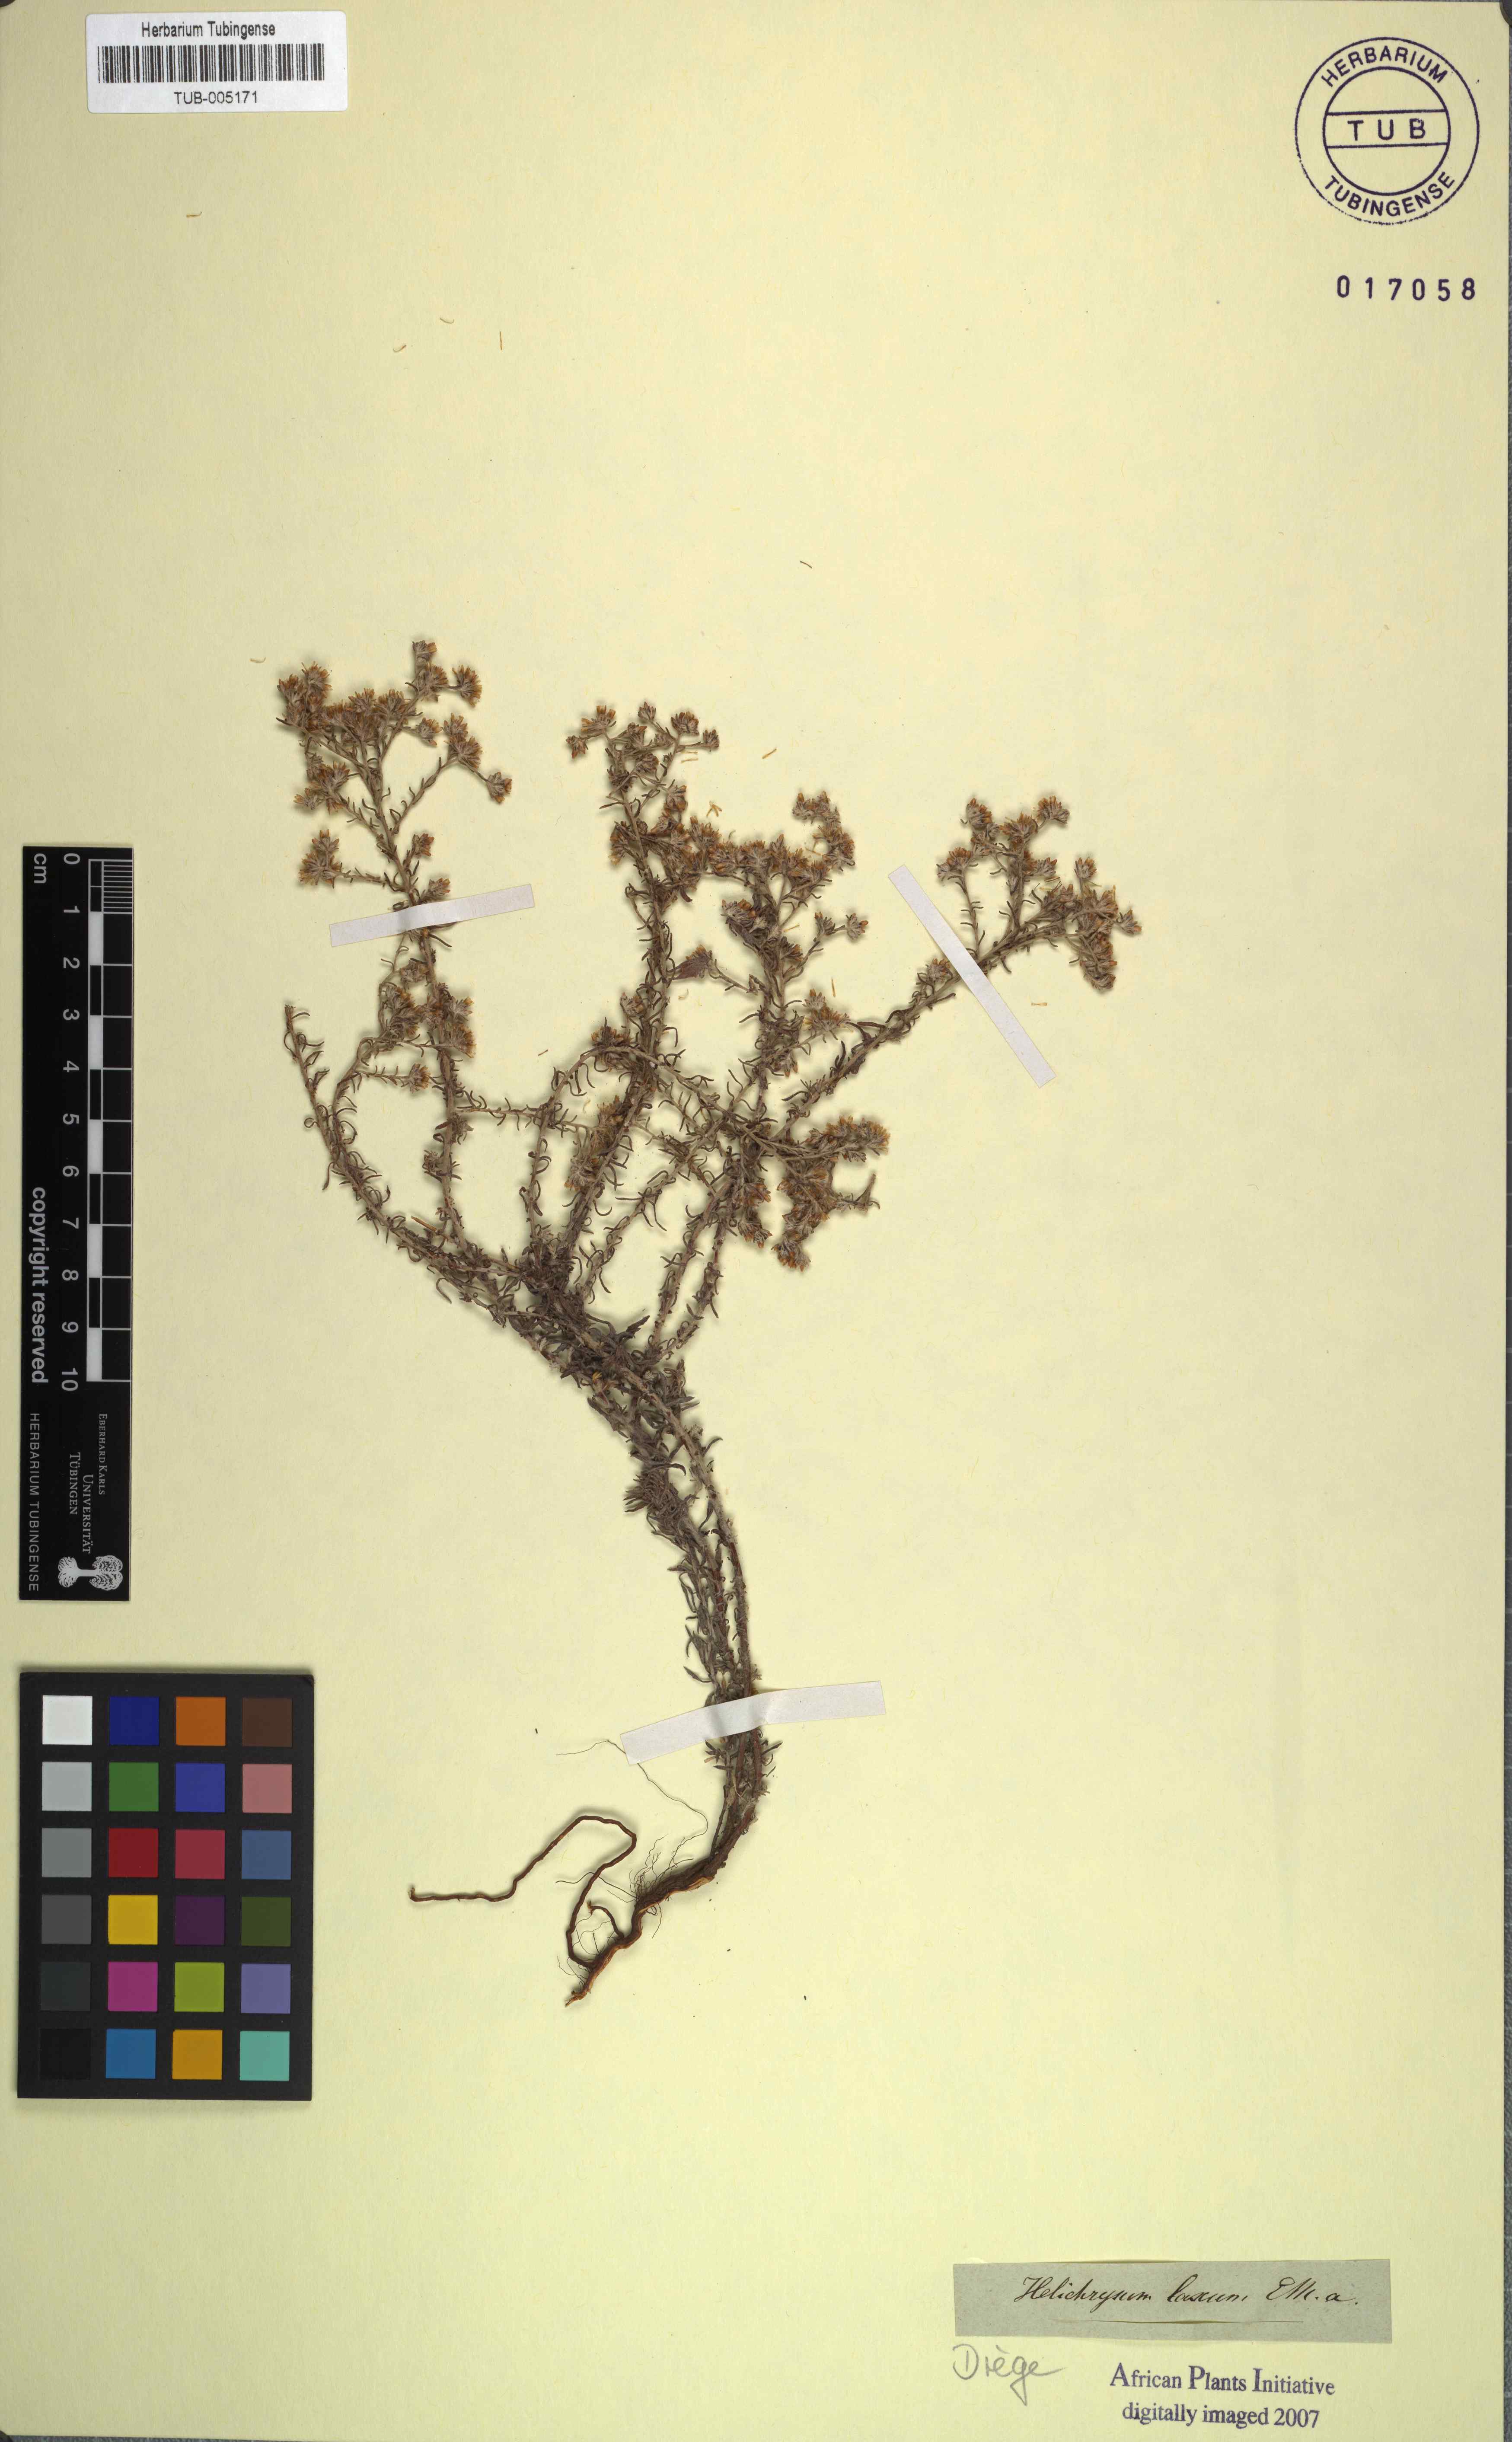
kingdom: Plantae
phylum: Tracheophyta
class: Magnoliopsida
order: Asterales
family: Asteraceae
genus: Helichrysum
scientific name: Helichrysum asperum
